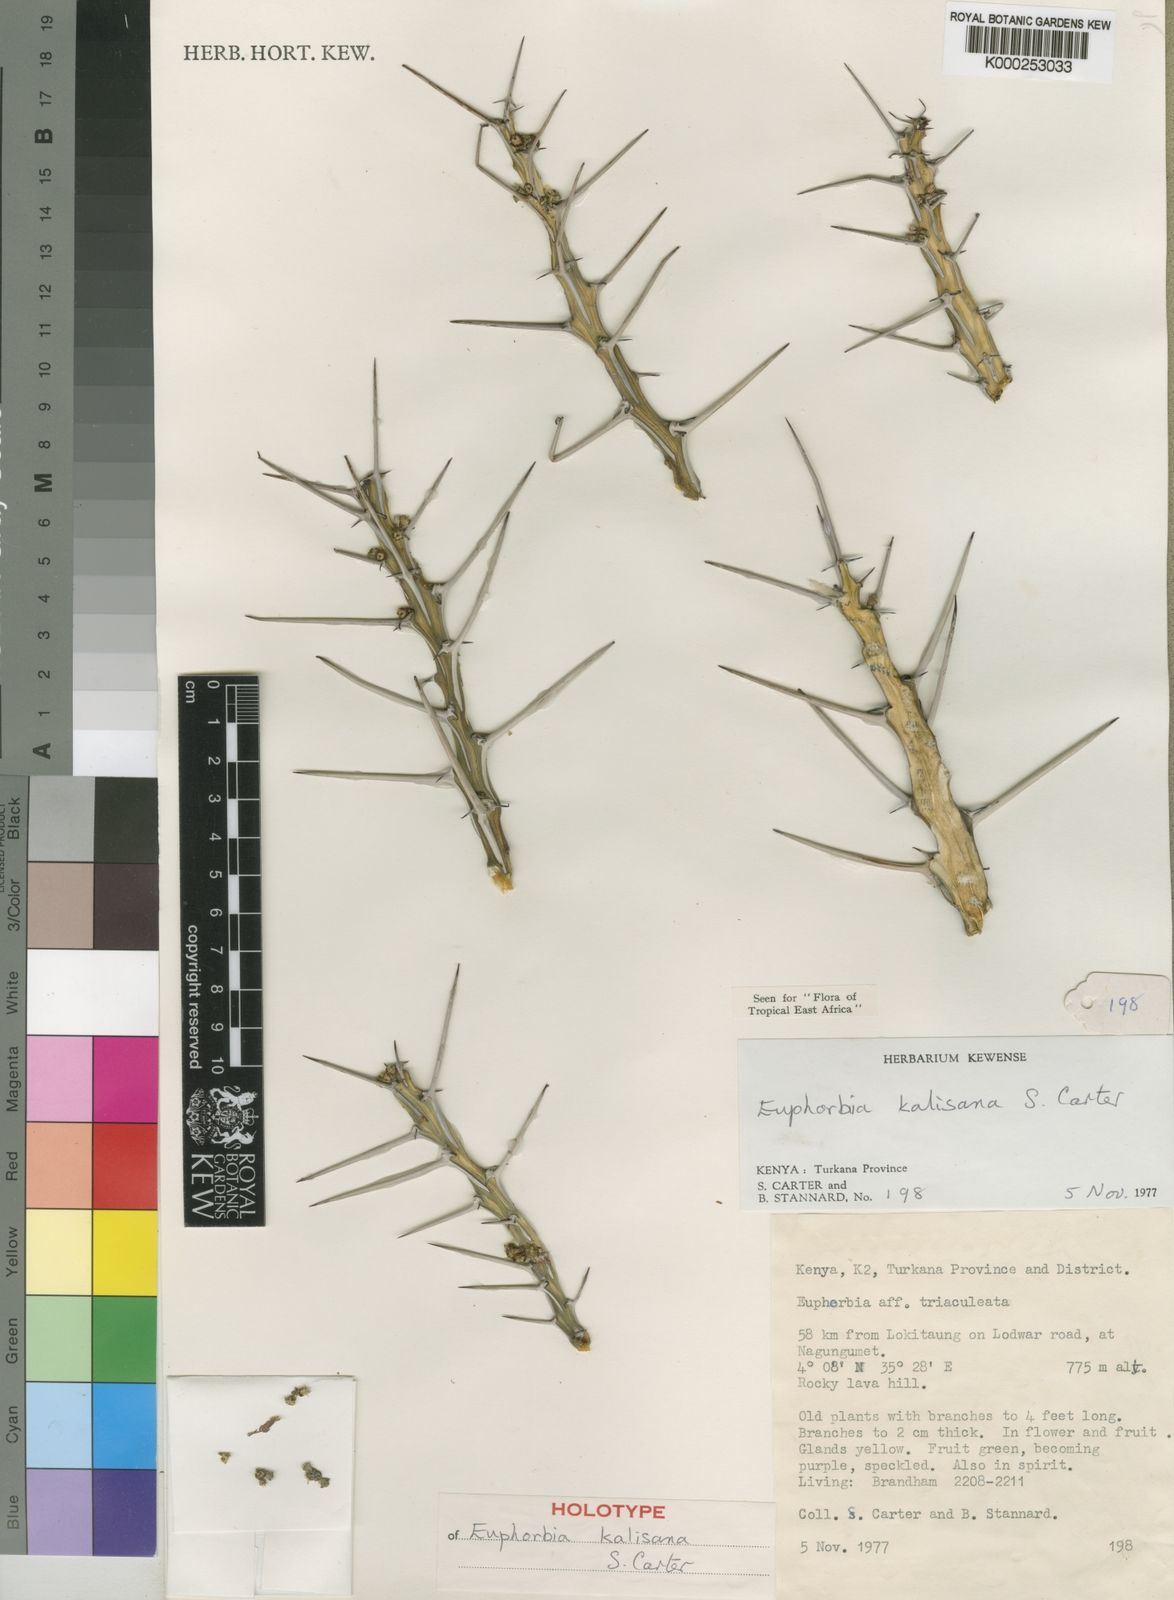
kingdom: Plantae
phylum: Tracheophyta
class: Magnoliopsida
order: Malpighiales
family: Euphorbiaceae
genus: Euphorbia
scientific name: Euphorbia kalisana
